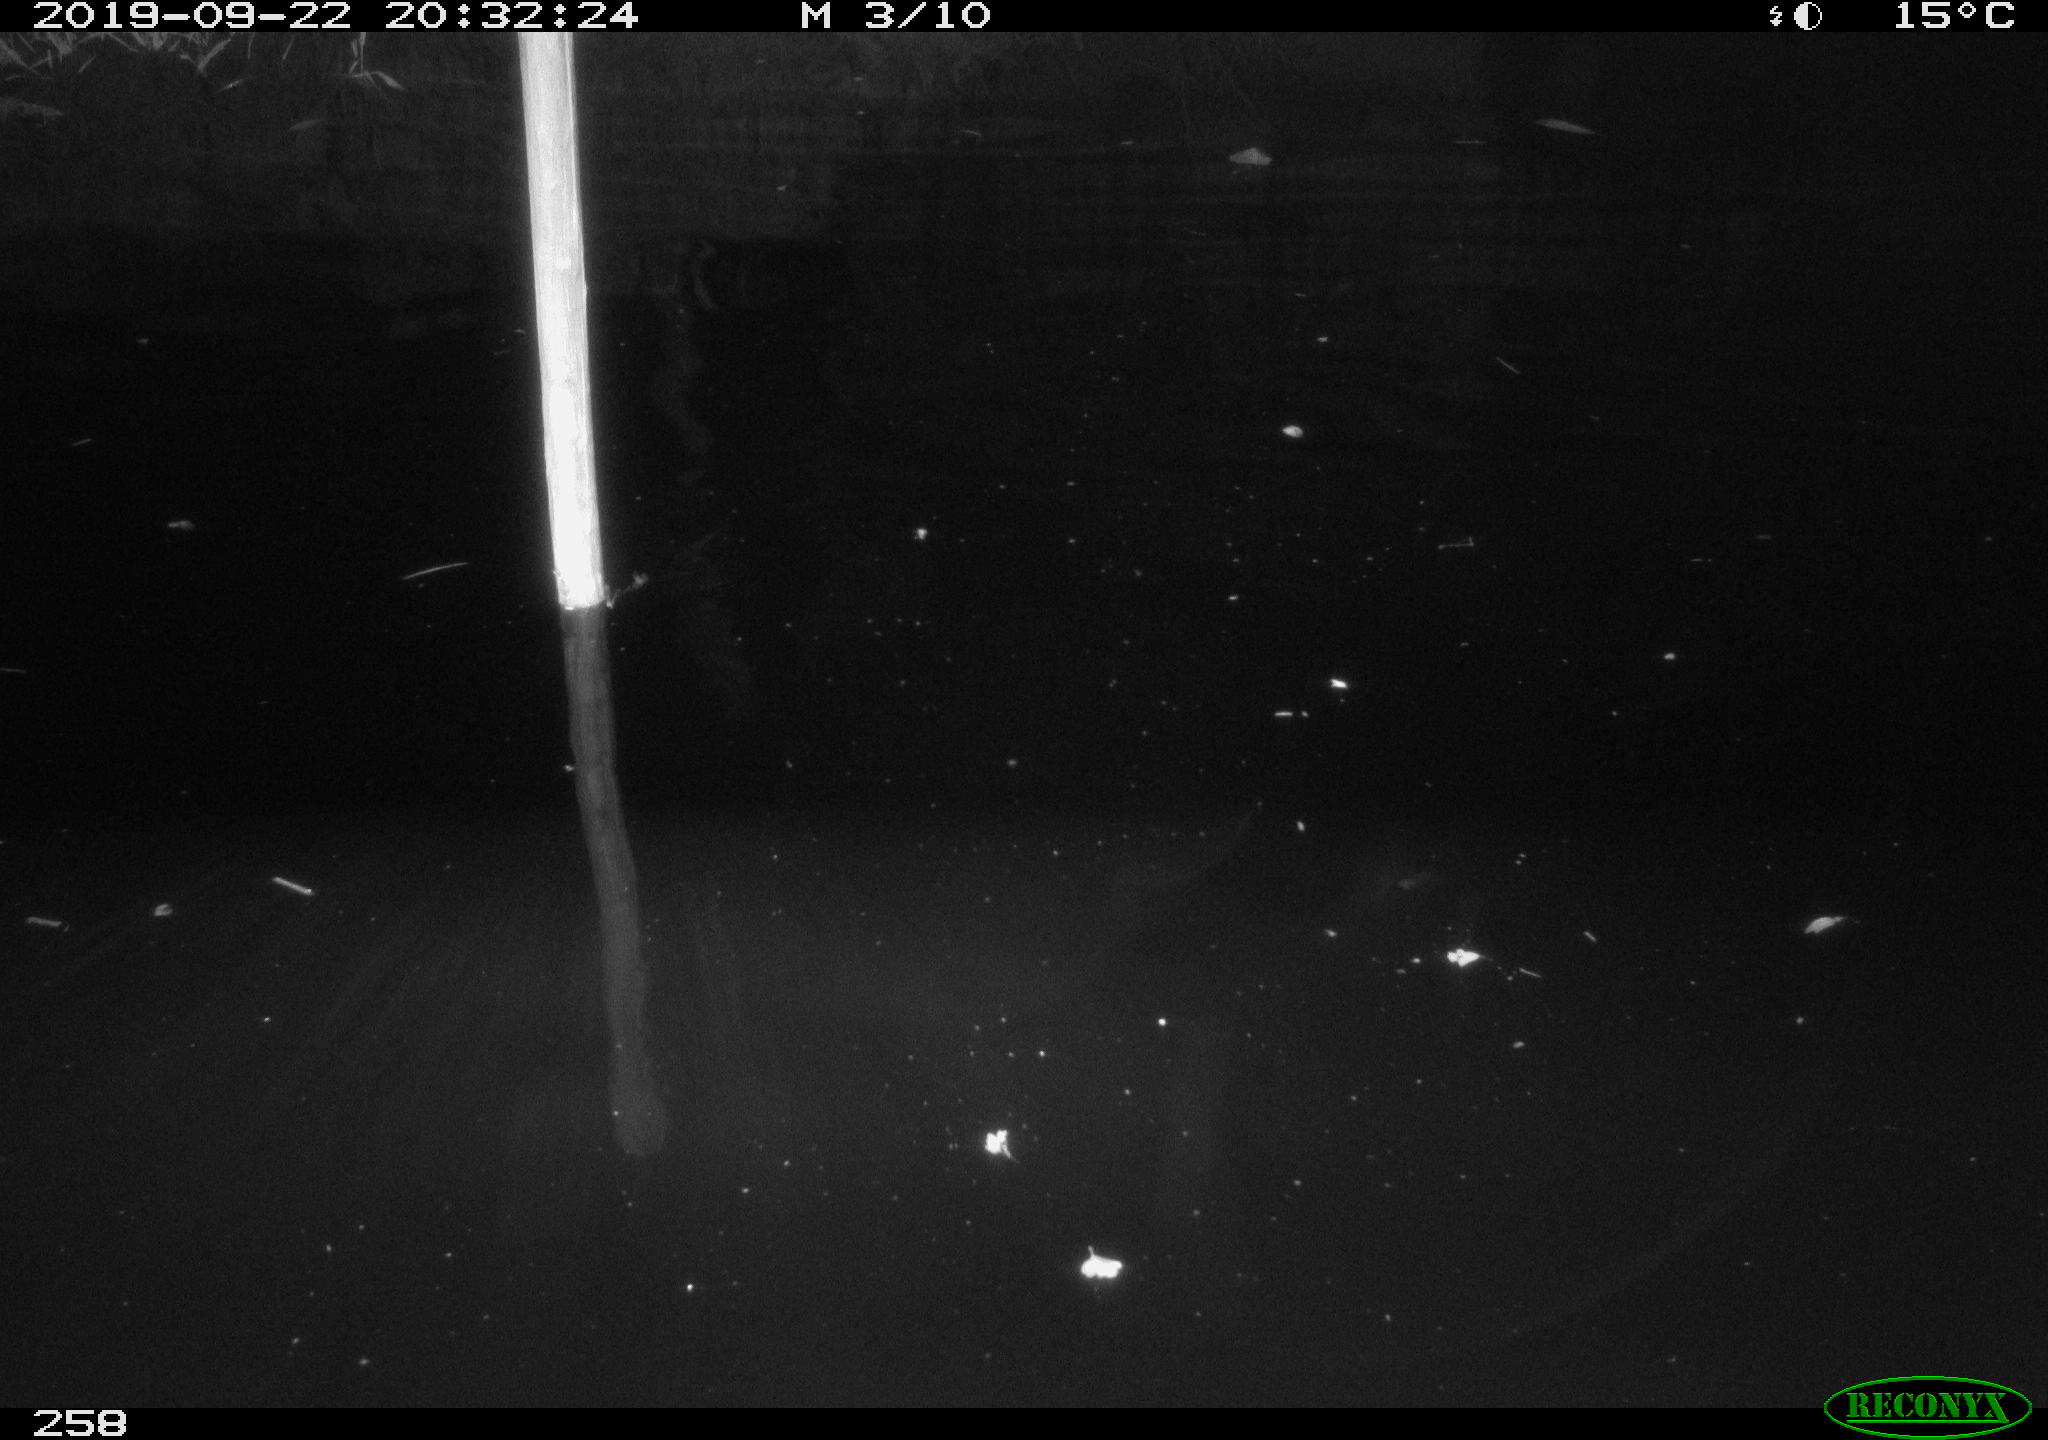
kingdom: Animalia
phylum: Chordata
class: Aves
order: Anseriformes
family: Anatidae
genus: Anas
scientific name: Anas platyrhynchos
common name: Mallard
